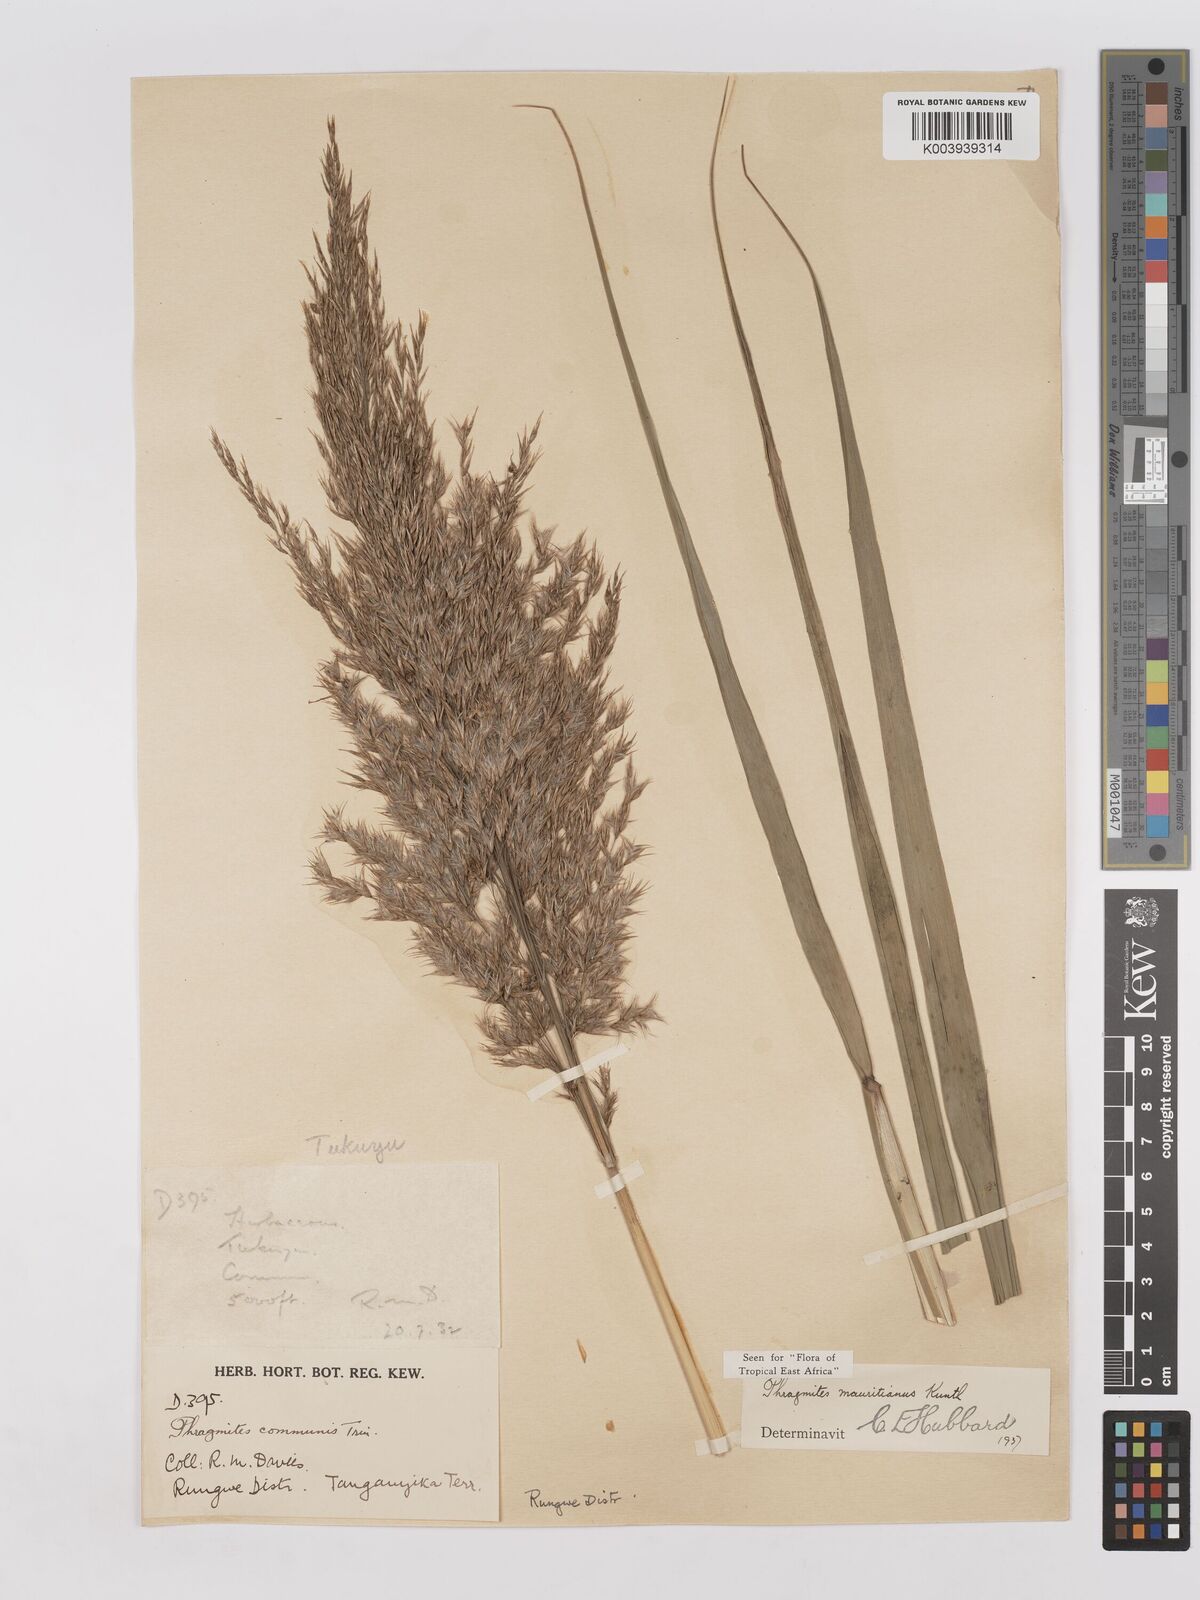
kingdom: Plantae
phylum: Tracheophyta
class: Liliopsida
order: Poales
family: Poaceae
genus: Phragmites
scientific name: Phragmites mauritianus
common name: Reed grass
